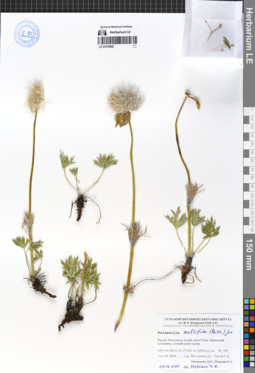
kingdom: Plantae
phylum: Tracheophyta
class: Magnoliopsida
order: Ranunculales
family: Ranunculaceae
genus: Pulsatilla
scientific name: Pulsatilla patens
